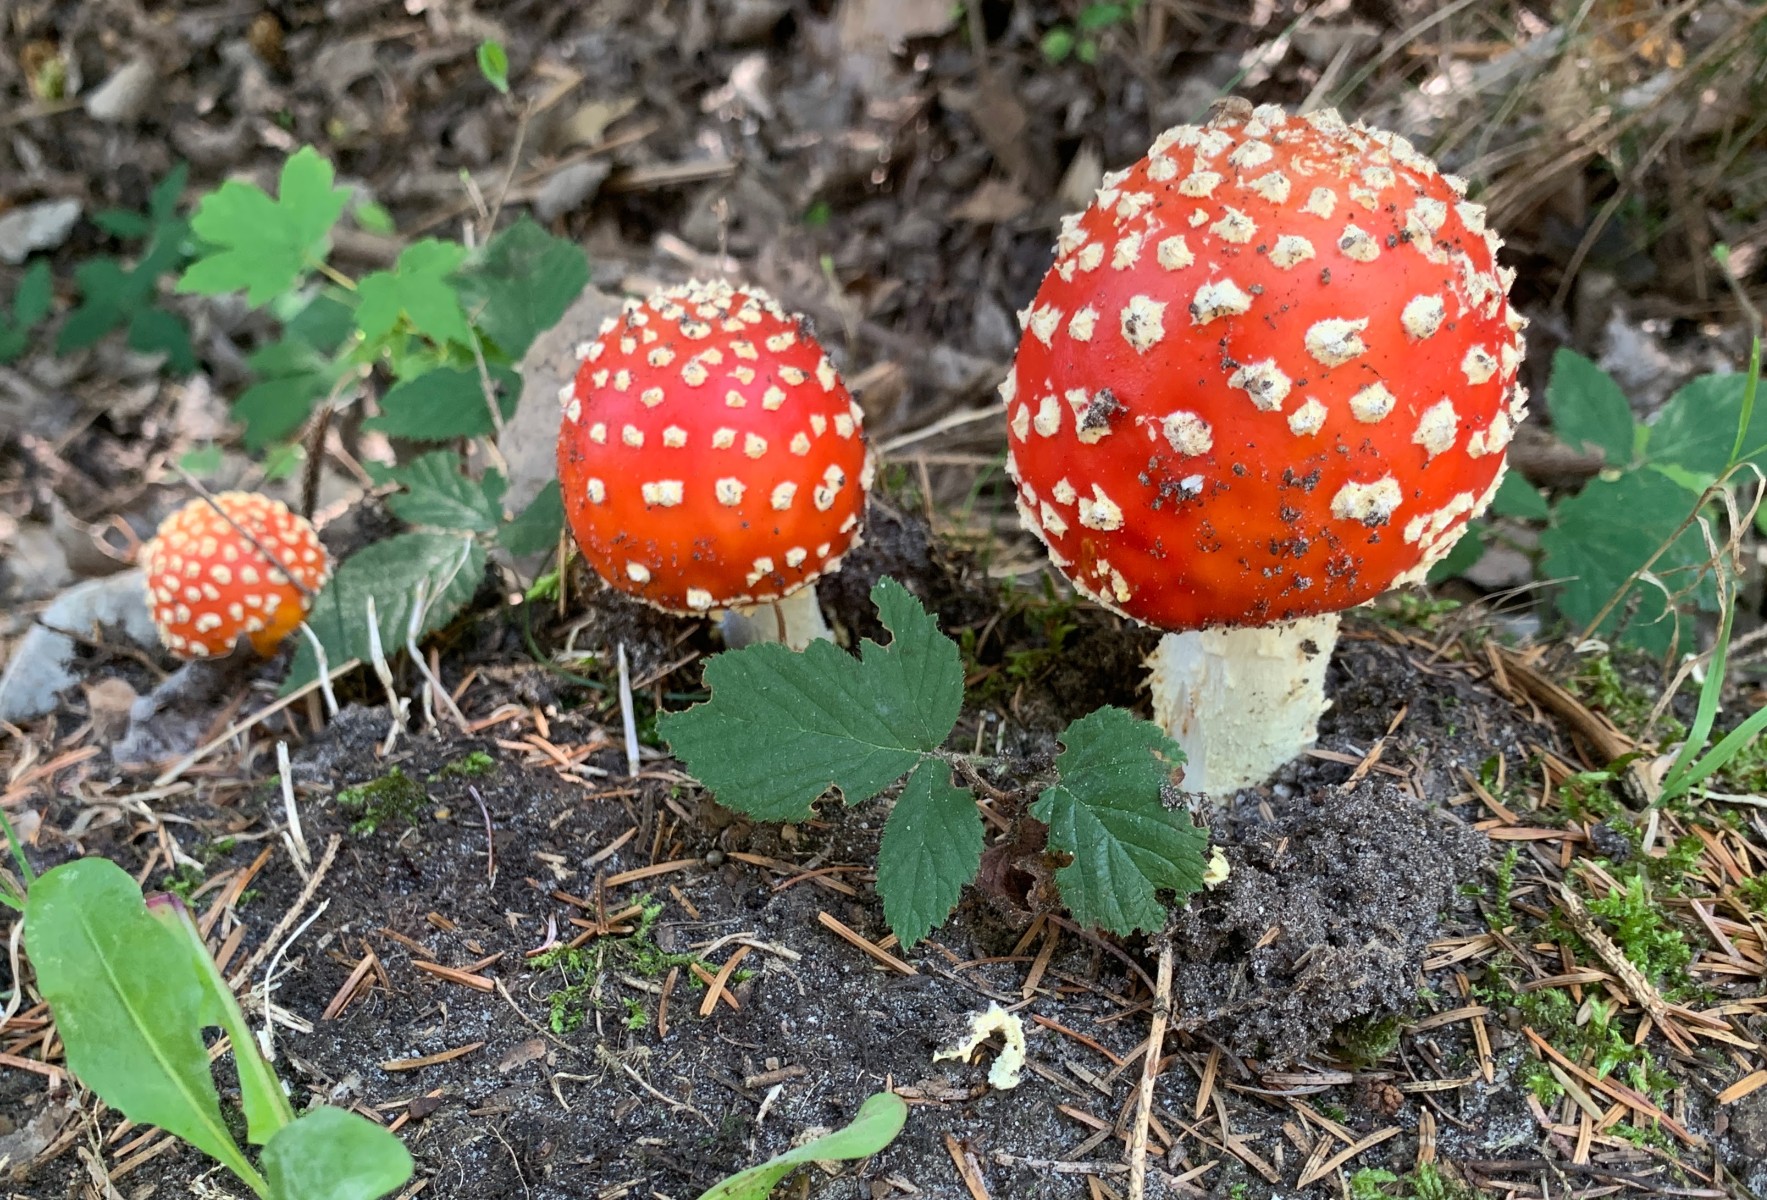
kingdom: Fungi
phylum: Basidiomycota
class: Agaricomycetes
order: Agaricales
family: Amanitaceae
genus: Amanita
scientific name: Amanita muscaria
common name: rød fluesvamp
